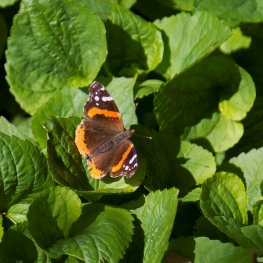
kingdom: Animalia
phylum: Arthropoda
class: Insecta
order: Lepidoptera
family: Nymphalidae
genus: Vanessa
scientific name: Vanessa atalanta
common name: Red Admiral
